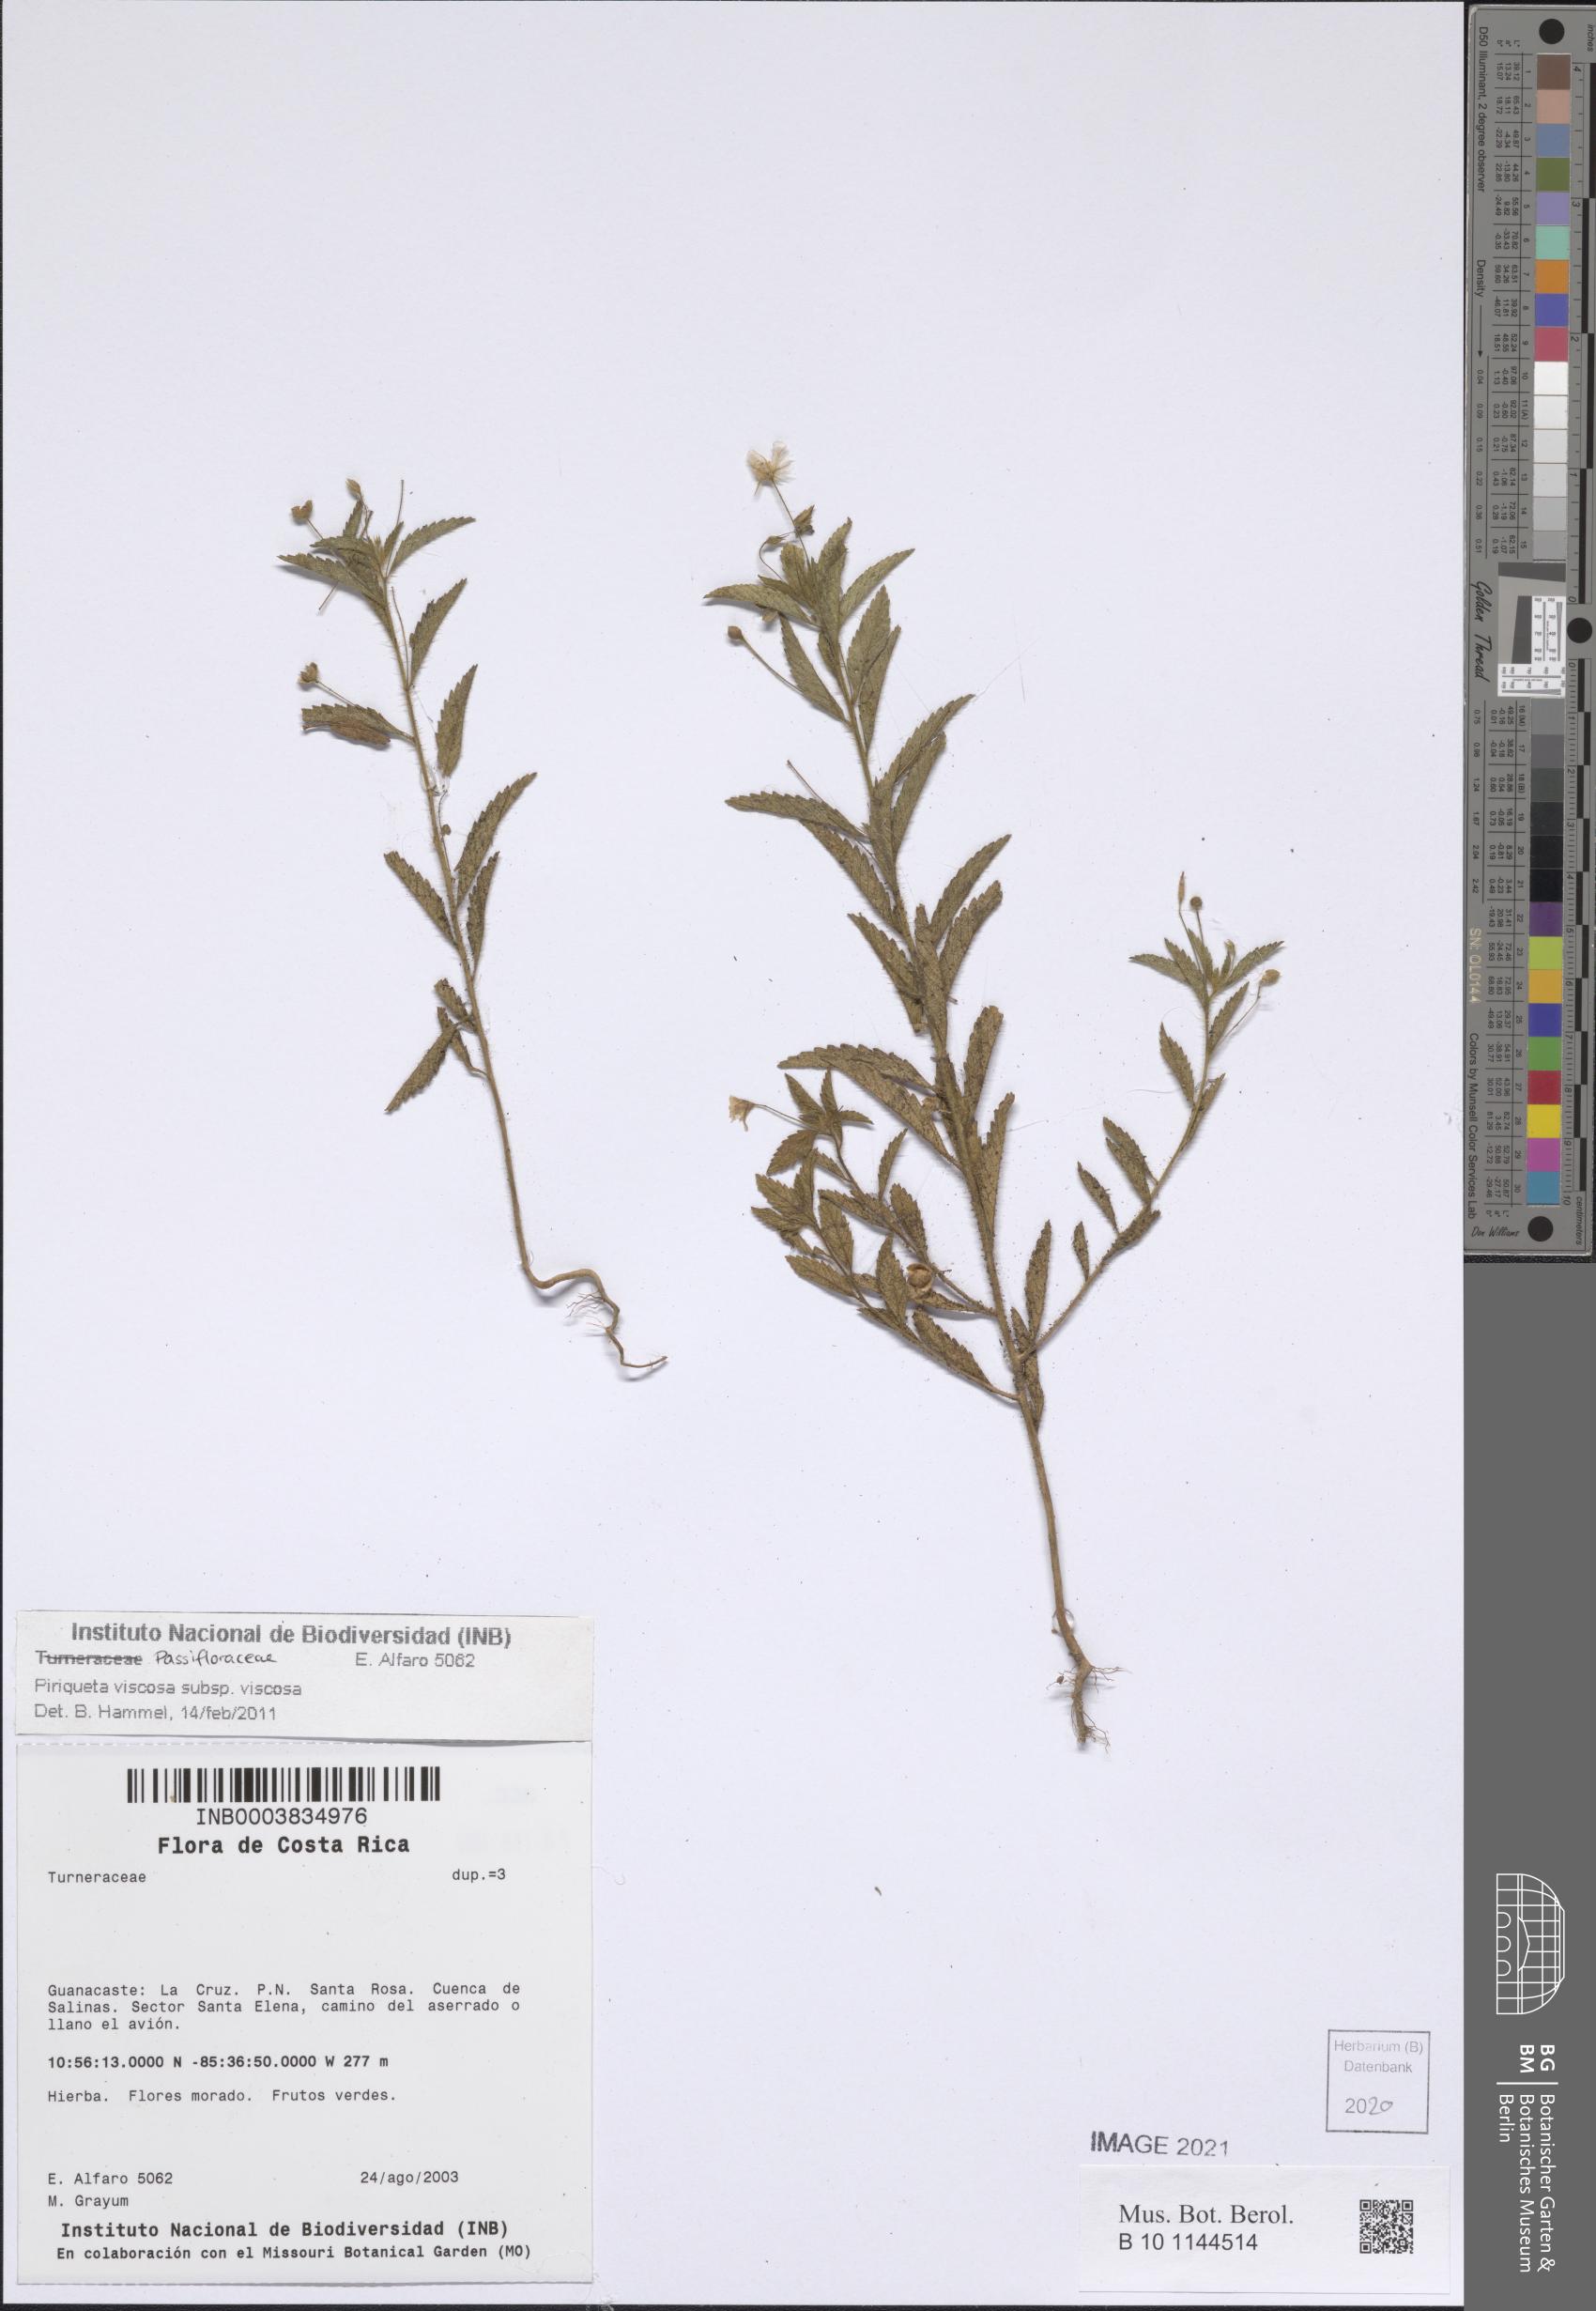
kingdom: Plantae
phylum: Tracheophyta
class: Magnoliopsida
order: Malpighiales
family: Turneraceae
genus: Piriqueta
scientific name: Piriqueta viscosa
